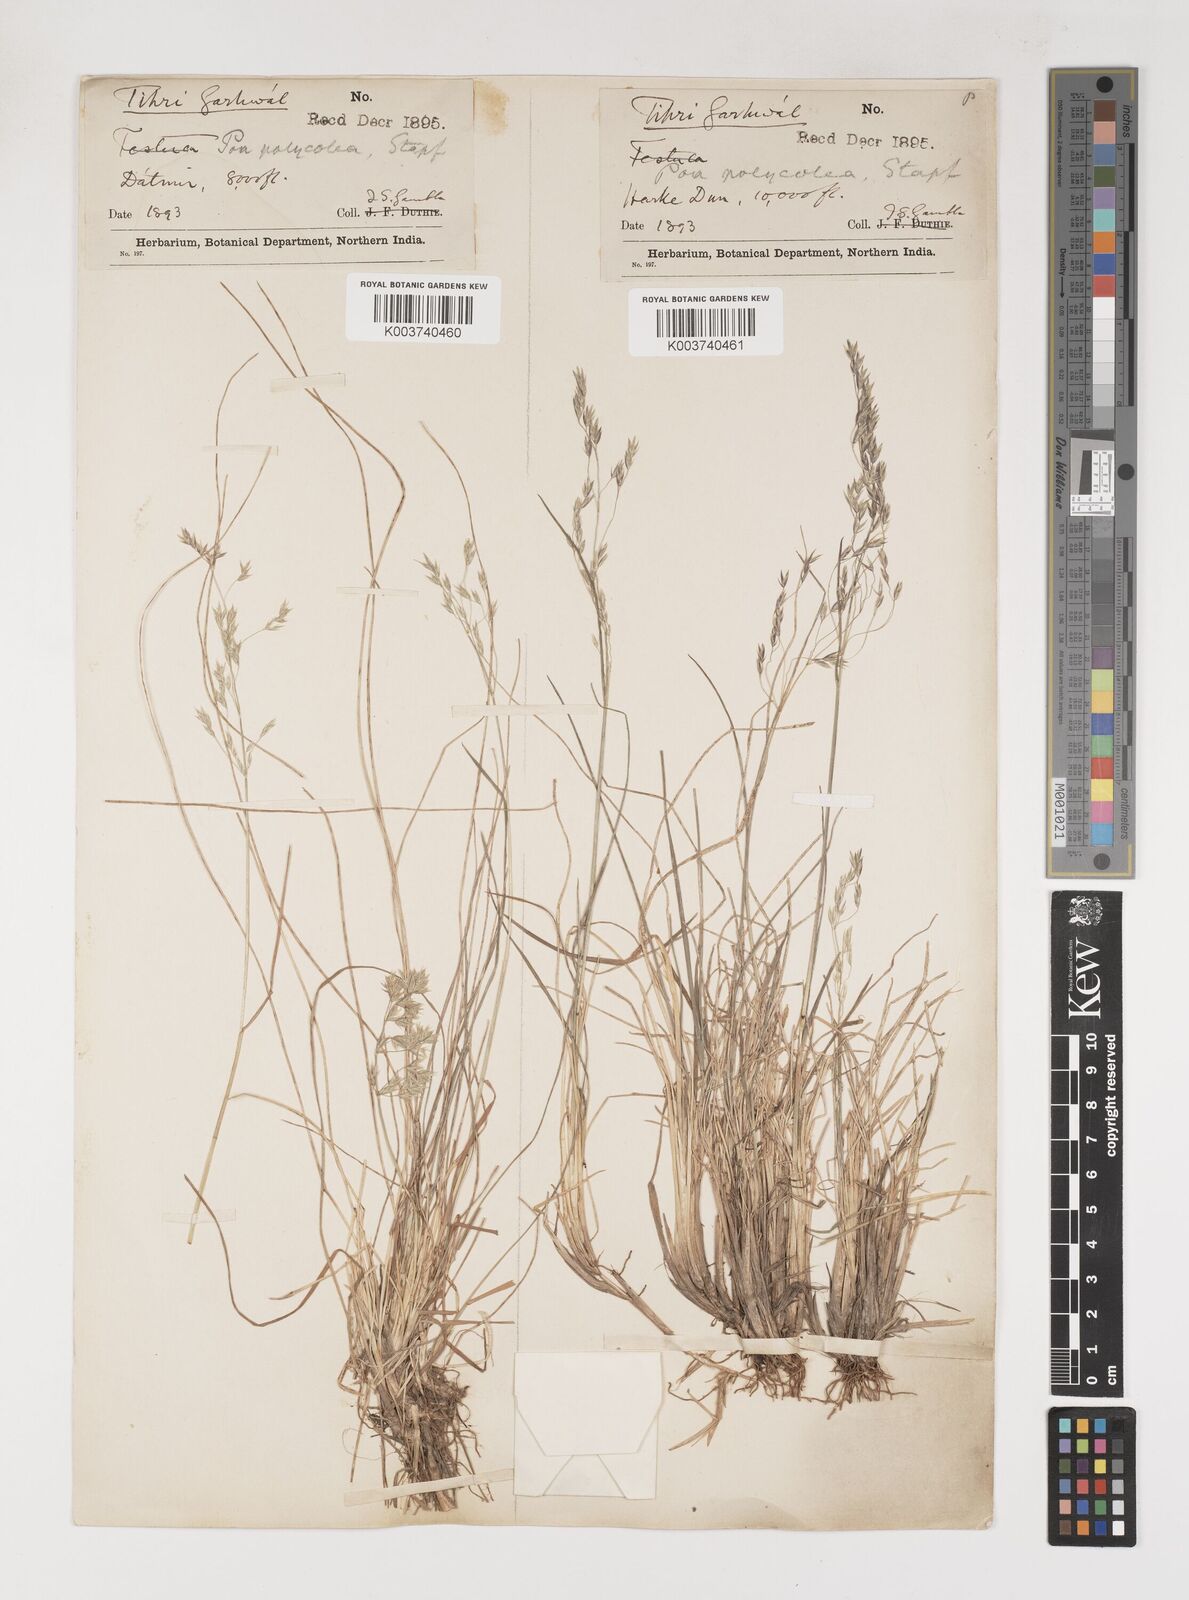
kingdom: Plantae
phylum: Tracheophyta
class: Liliopsida
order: Poales
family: Poaceae
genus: Poa
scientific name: Poa polycolea
